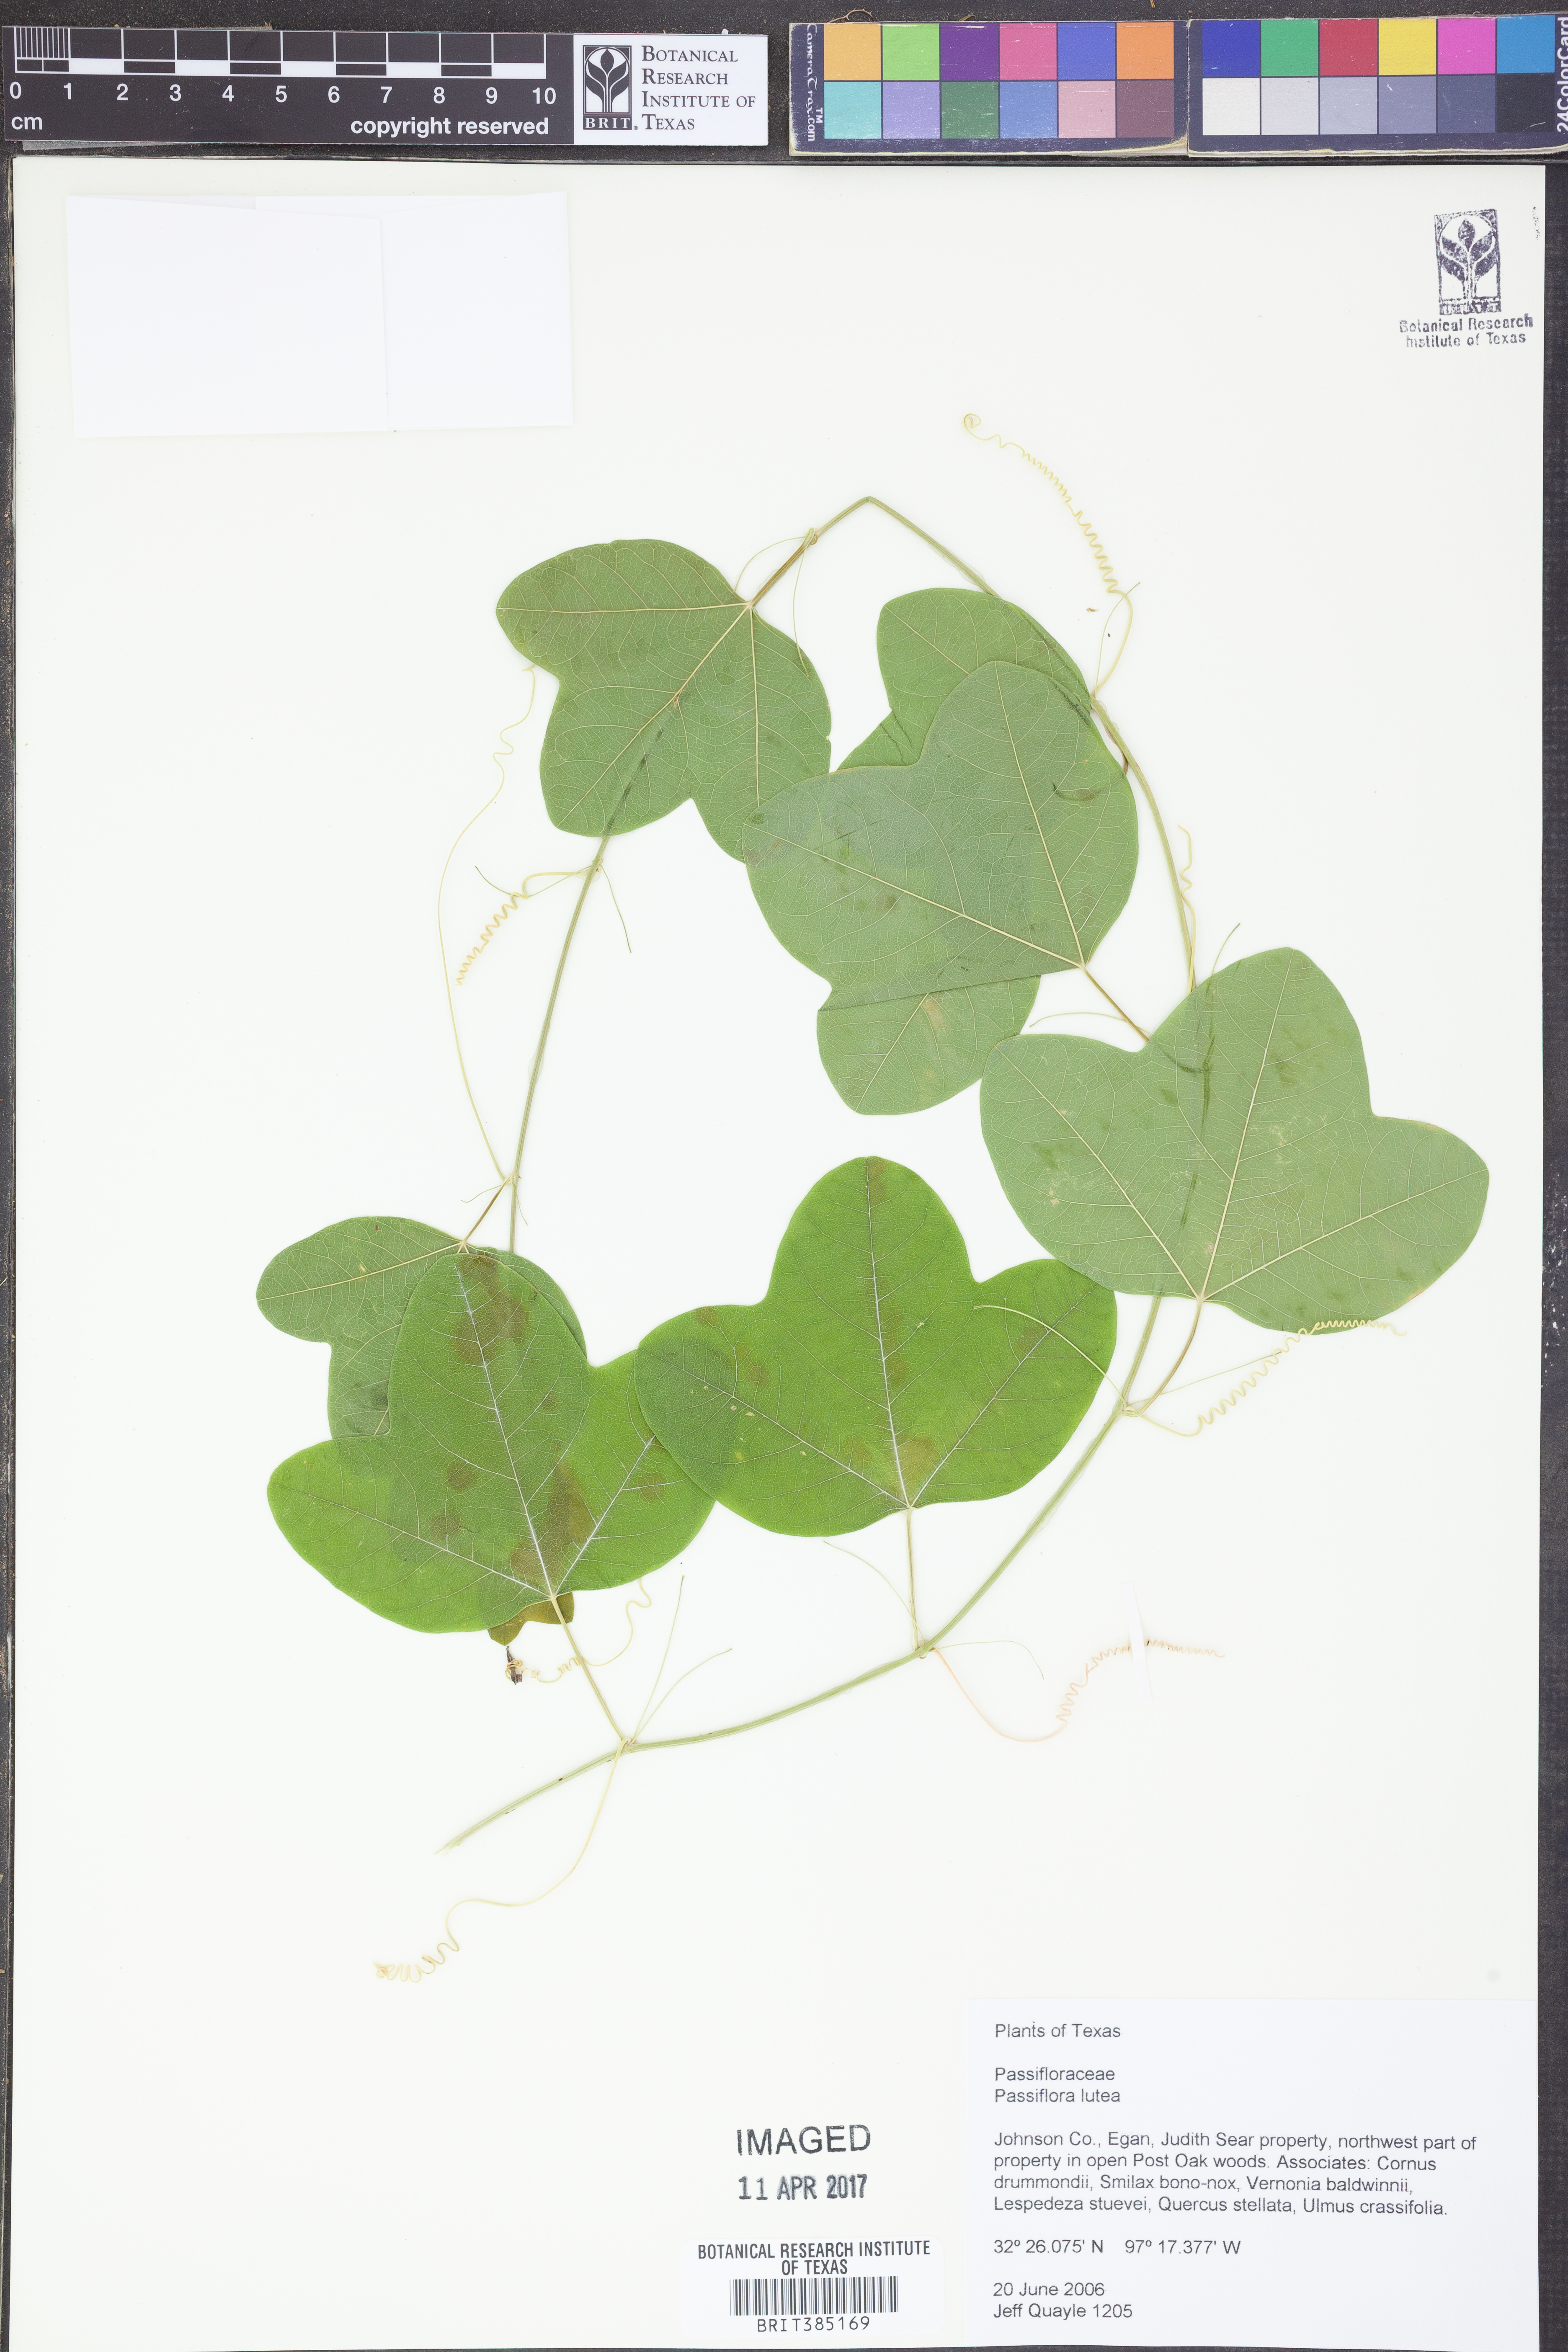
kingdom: Plantae
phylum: Tracheophyta
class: Magnoliopsida
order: Malpighiales
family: Passifloraceae
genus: Passiflora
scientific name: Passiflora lutea
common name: Yellow passionflower
